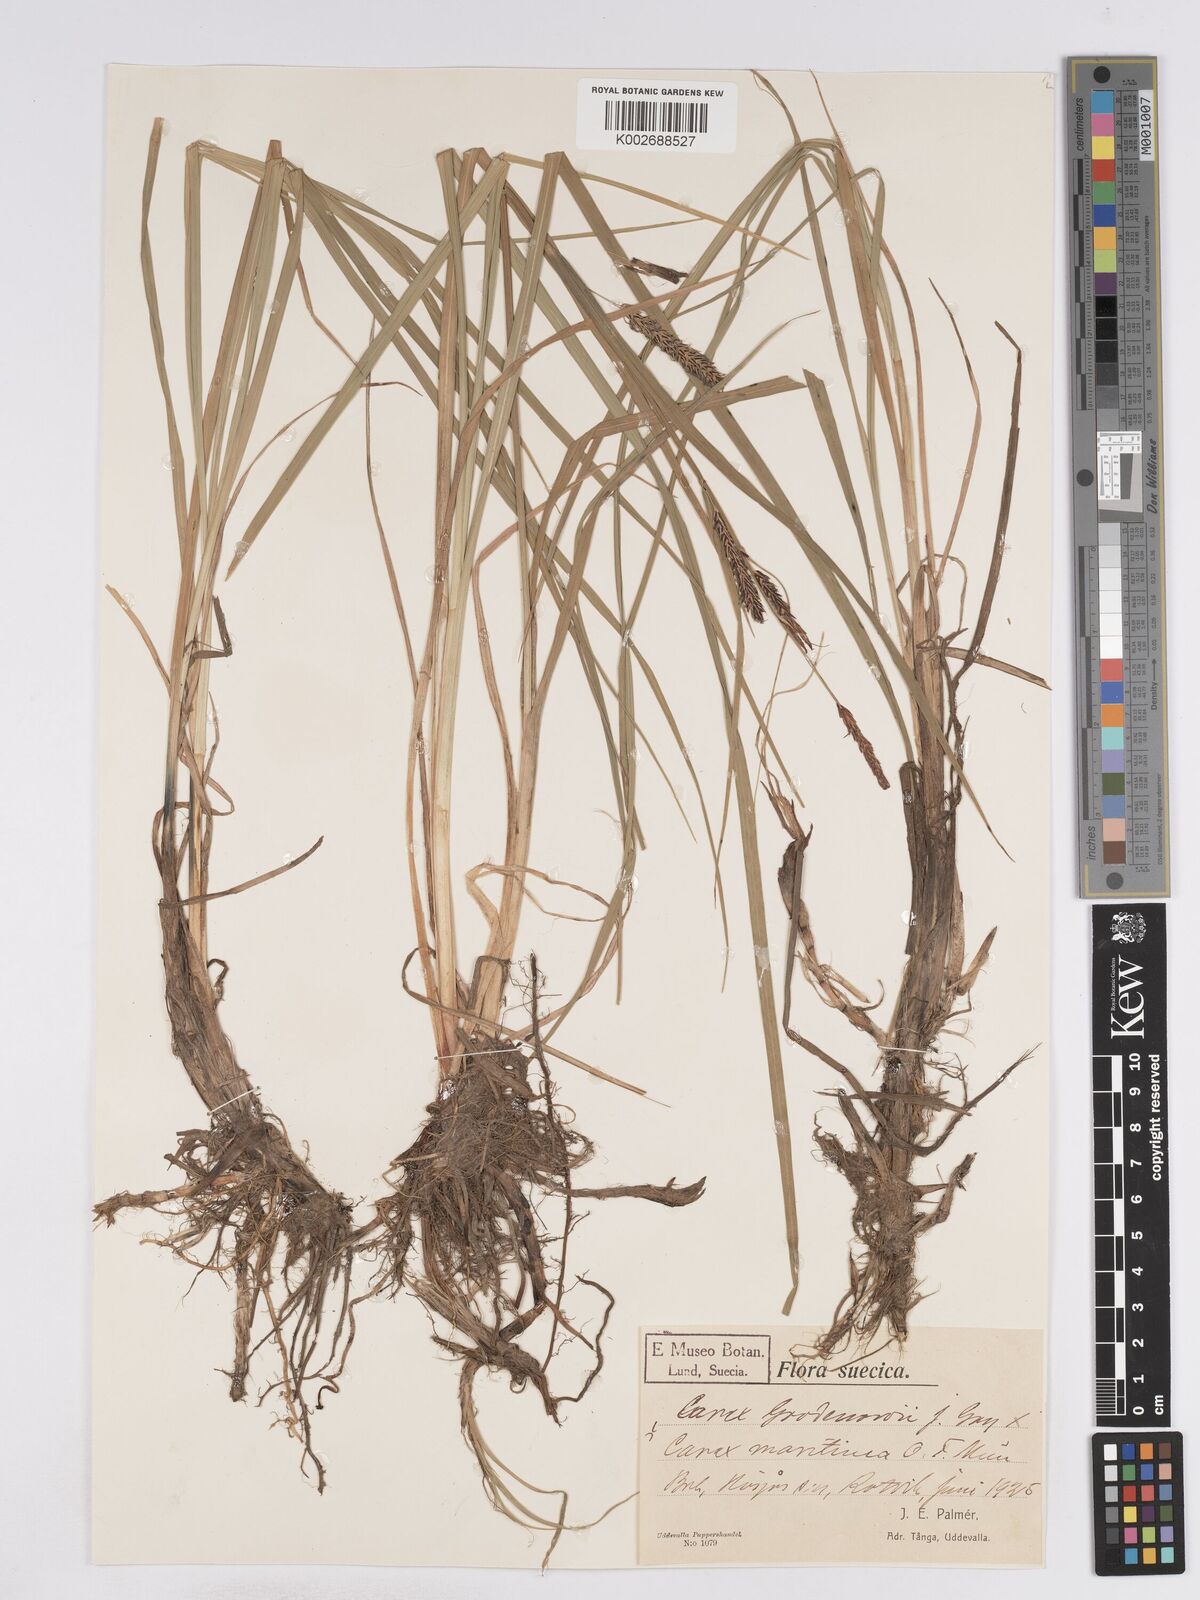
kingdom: Plantae
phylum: Tracheophyta
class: Liliopsida
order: Poales
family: Cyperaceae
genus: Carex
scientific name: Carex recta
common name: Estuarine sedge
